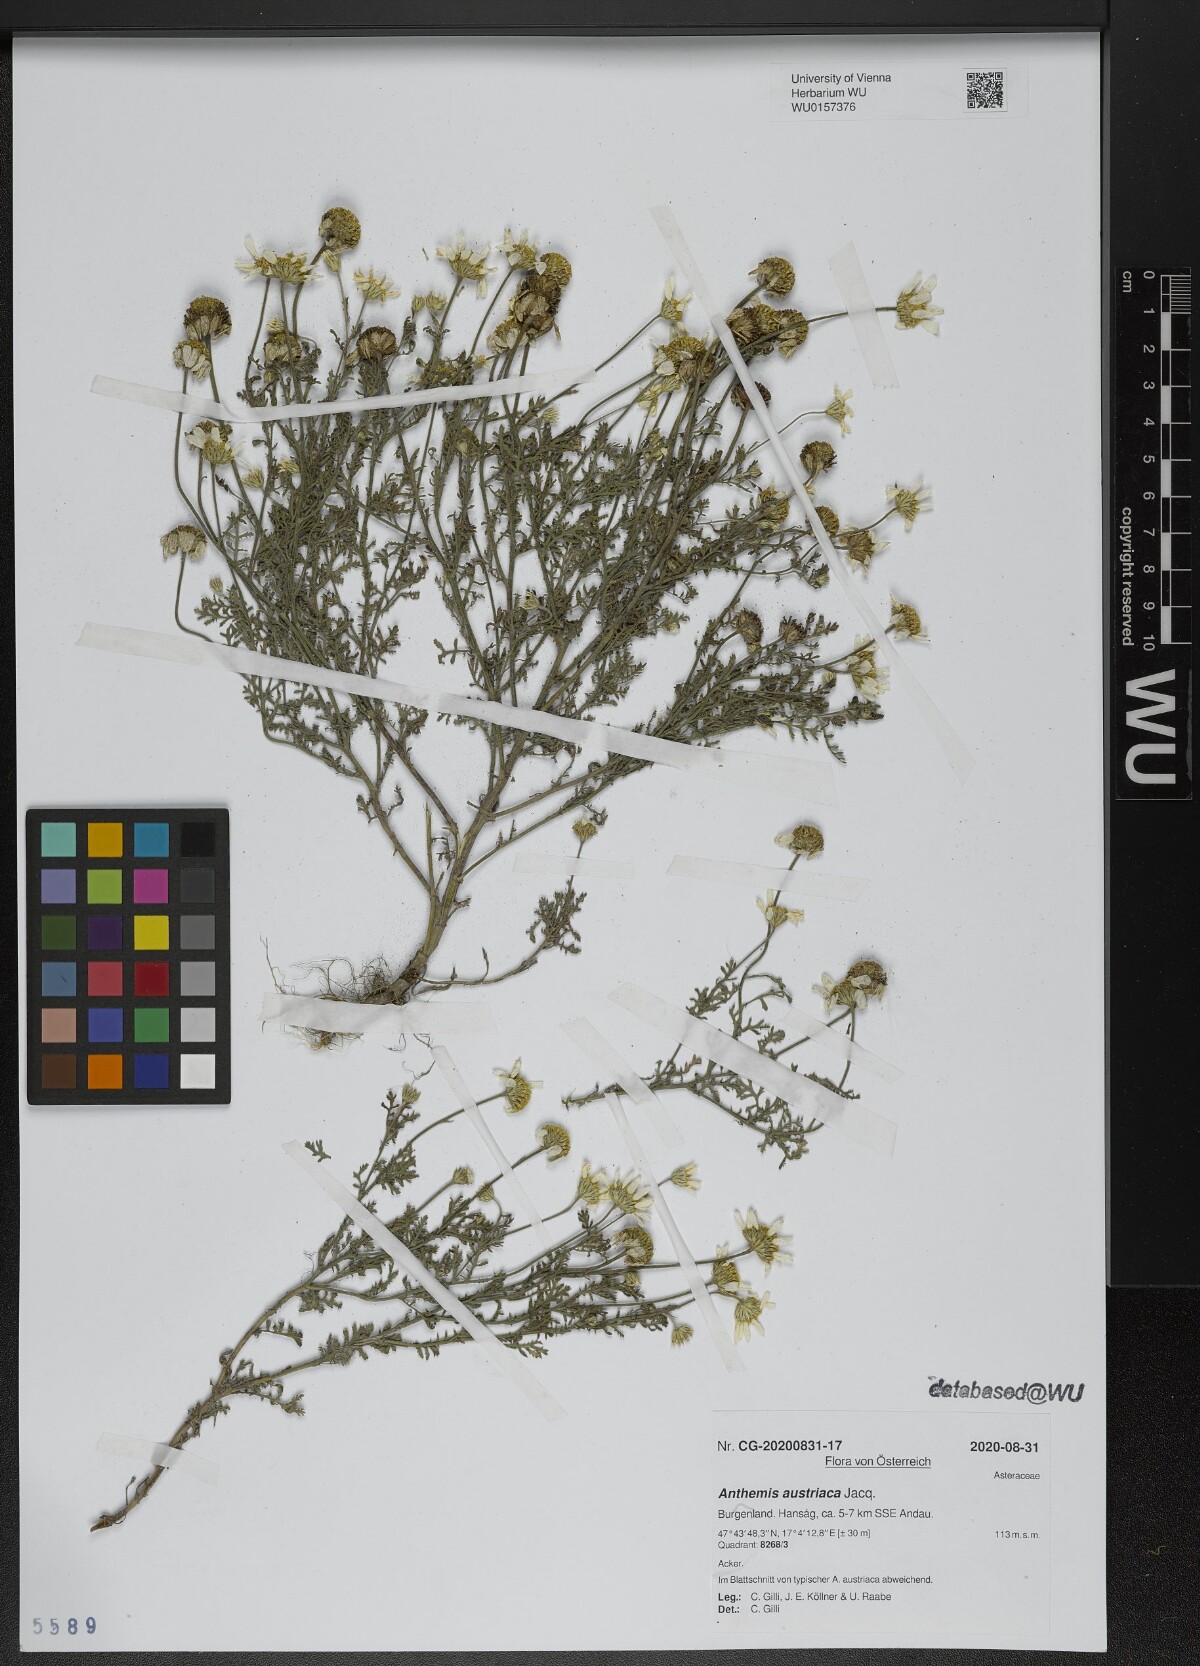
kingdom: Plantae
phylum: Tracheophyta
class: Magnoliopsida
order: Asterales
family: Asteraceae
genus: Cota
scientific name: Cota austriaca
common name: Austrian chamomile
